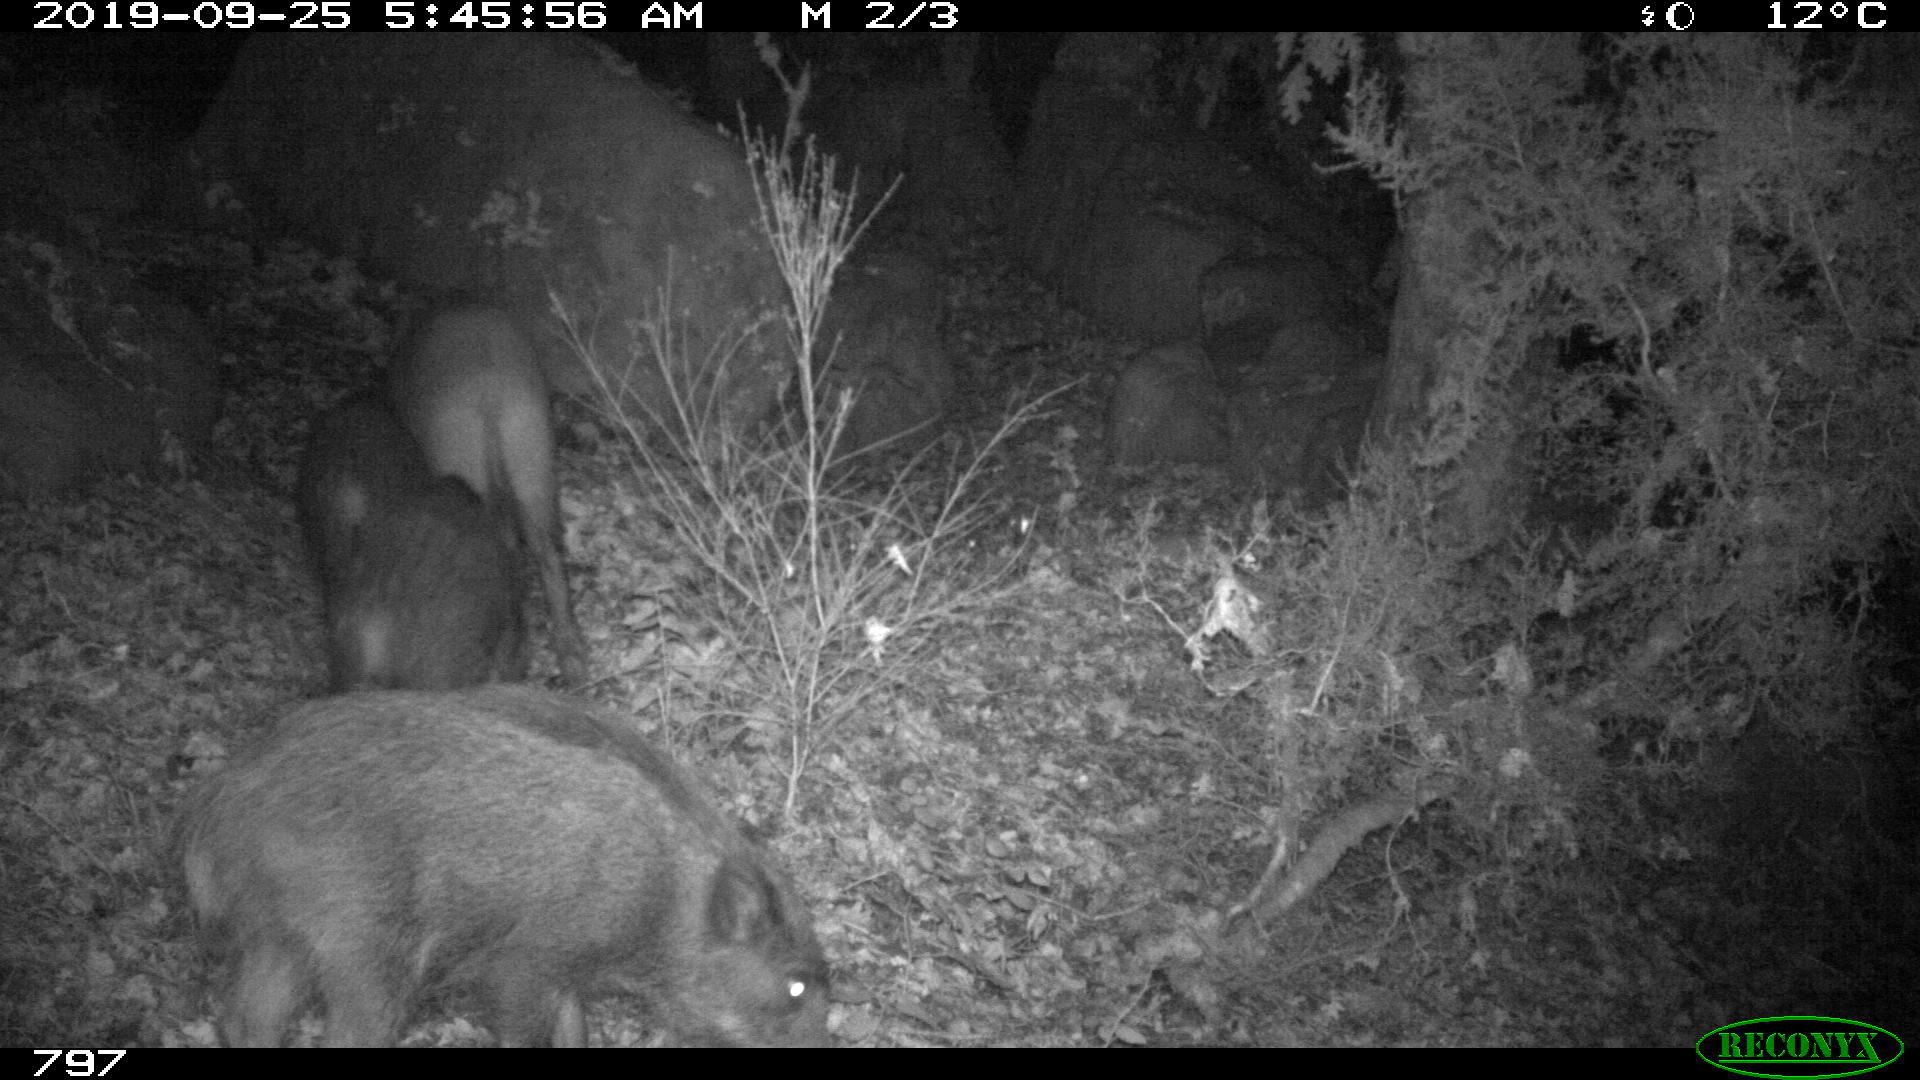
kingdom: Animalia
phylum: Chordata
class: Mammalia
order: Artiodactyla
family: Suidae
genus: Sus
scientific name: Sus scrofa
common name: Wild boar
